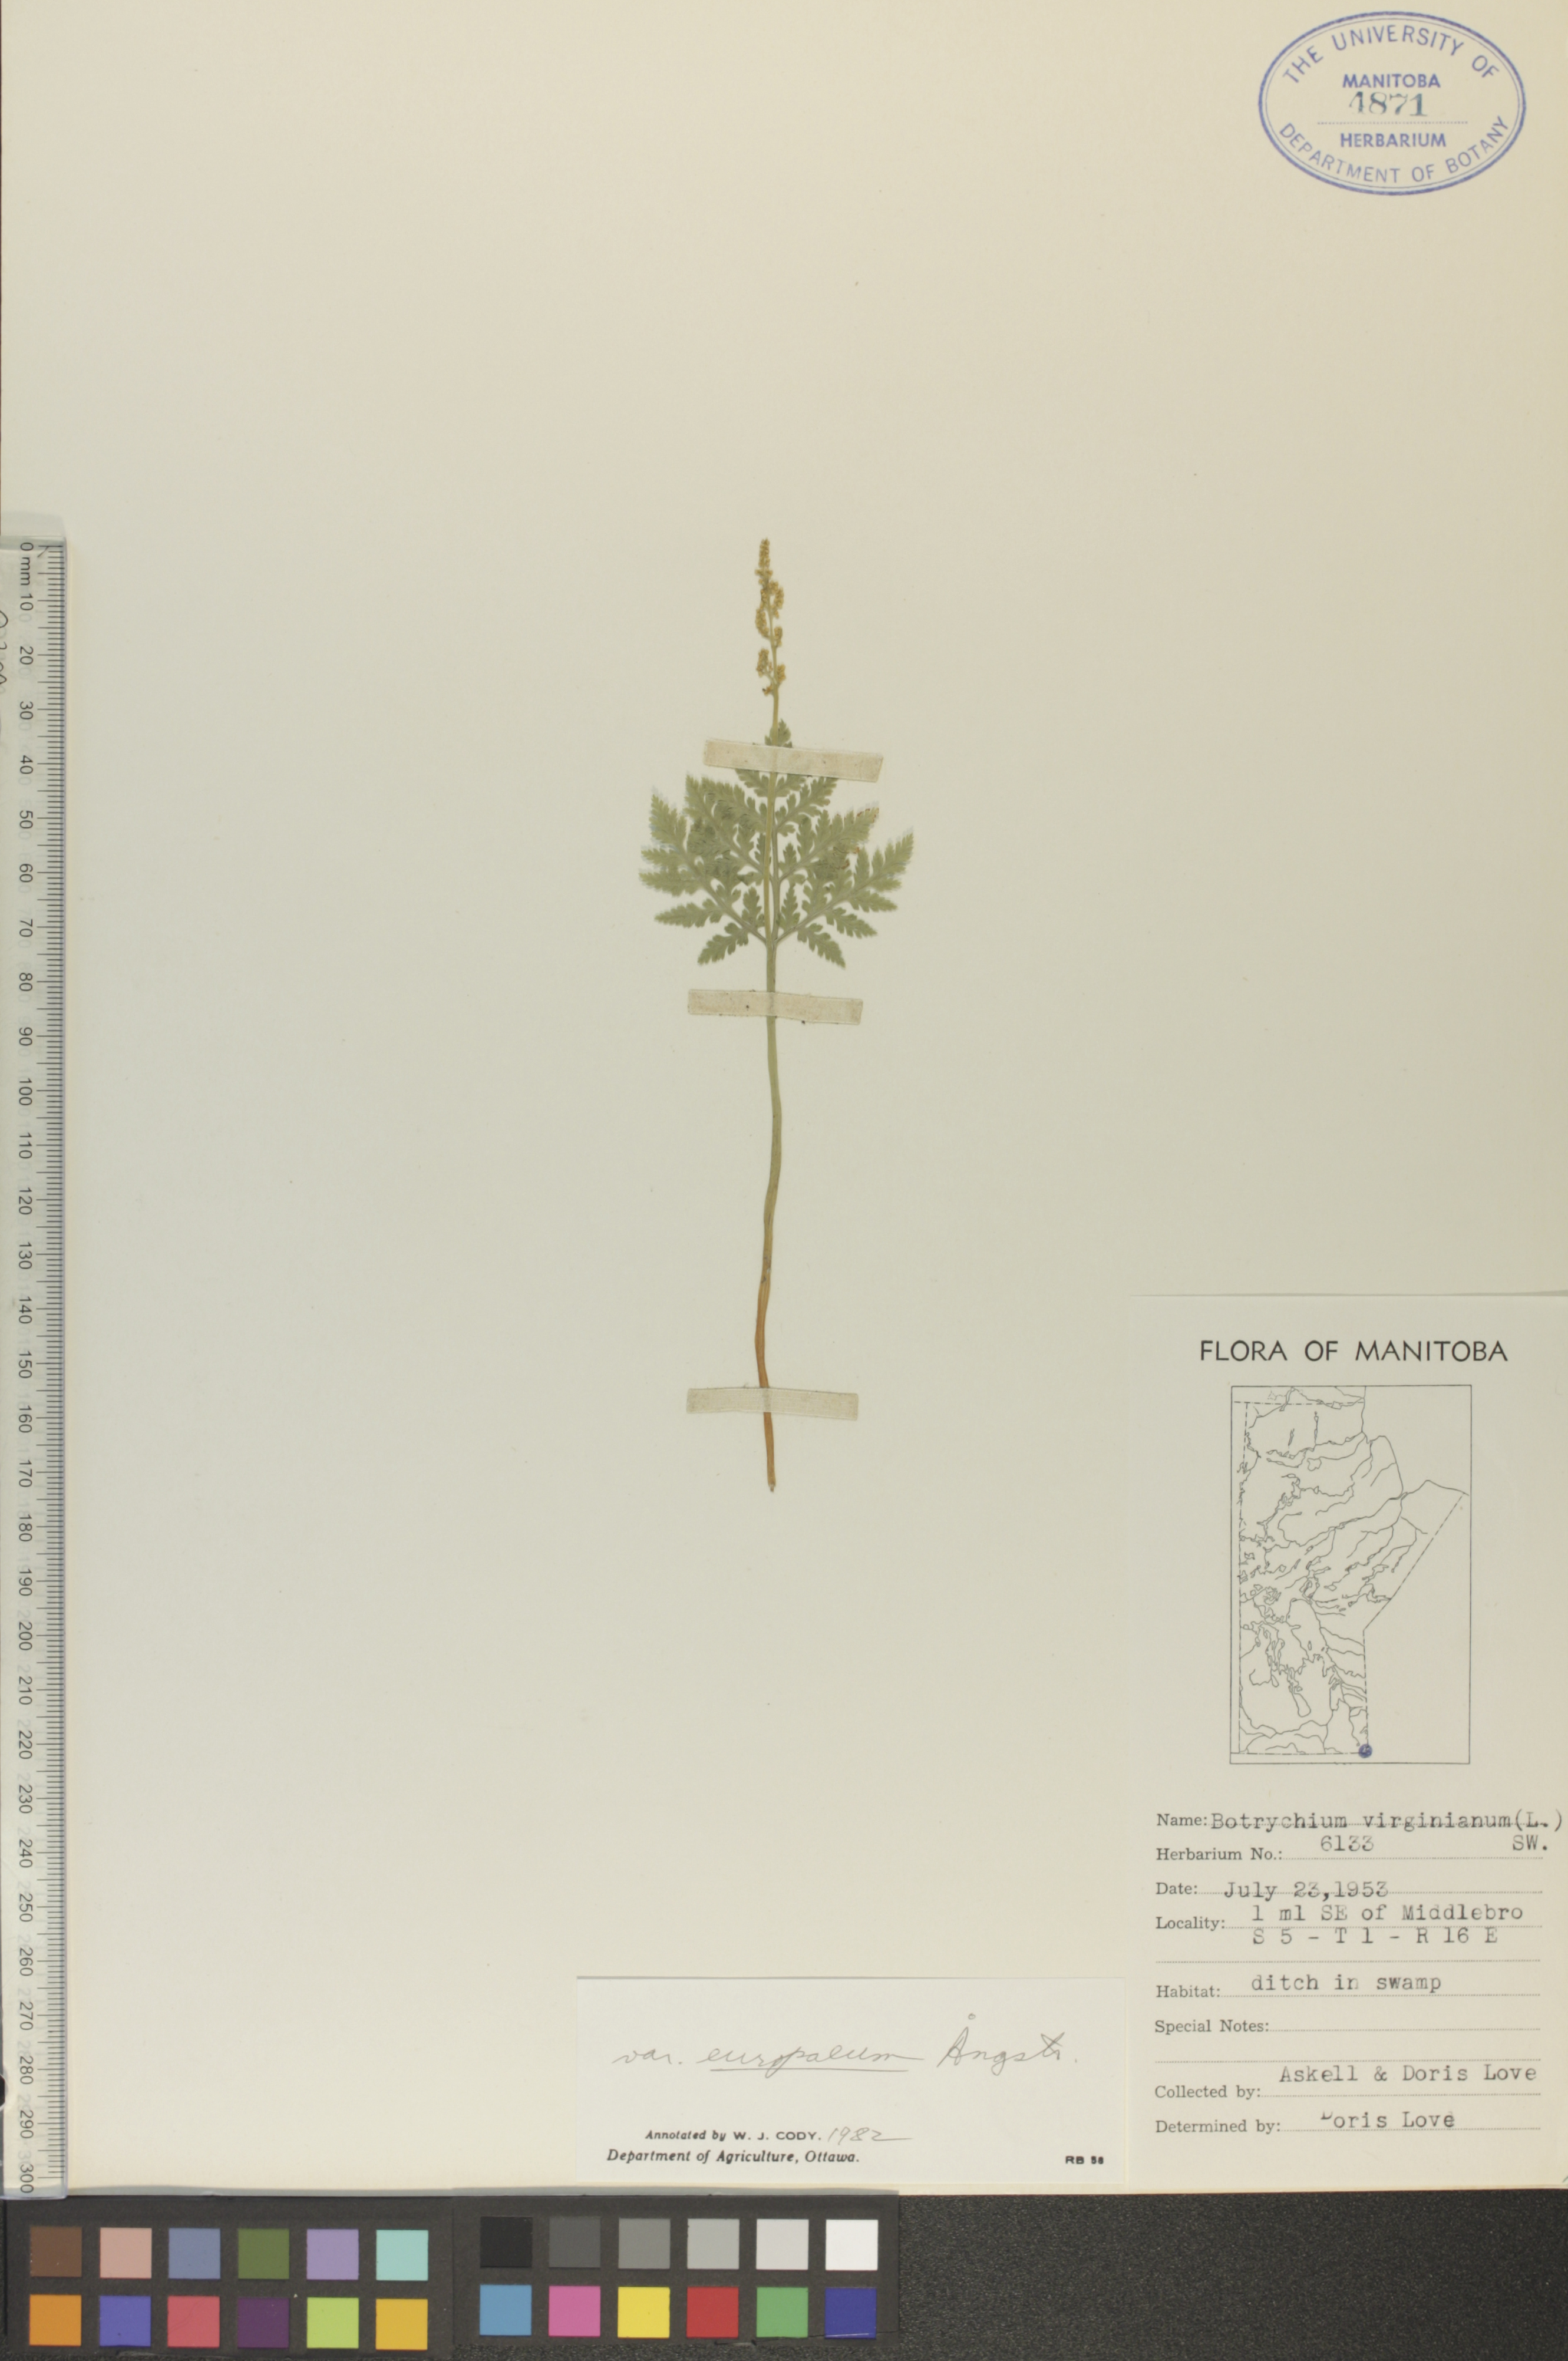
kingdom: Plantae
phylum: Tracheophyta
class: Polypodiopsida
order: Ophioglossales
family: Ophioglossaceae
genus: Botrypus
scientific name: Botrypus virginianus
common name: Common grapefern
